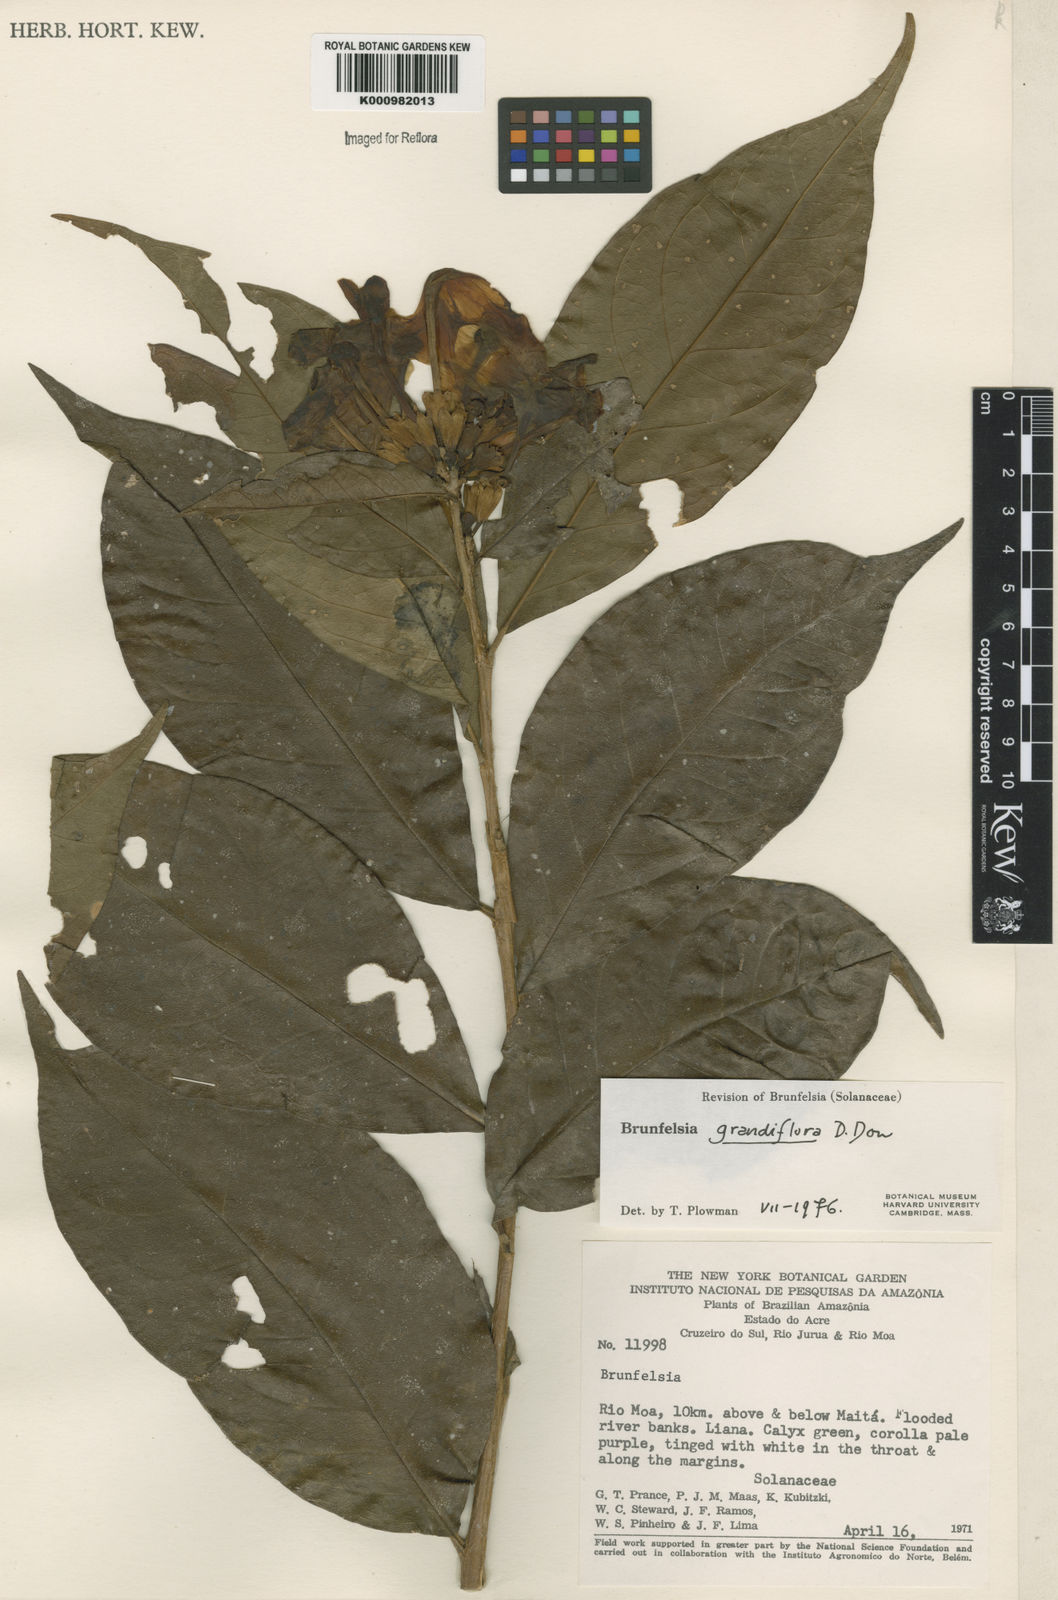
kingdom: Plantae
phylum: Tracheophyta
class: Magnoliopsida
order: Solanales
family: Solanaceae
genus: Brunfelsia
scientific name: Brunfelsia
